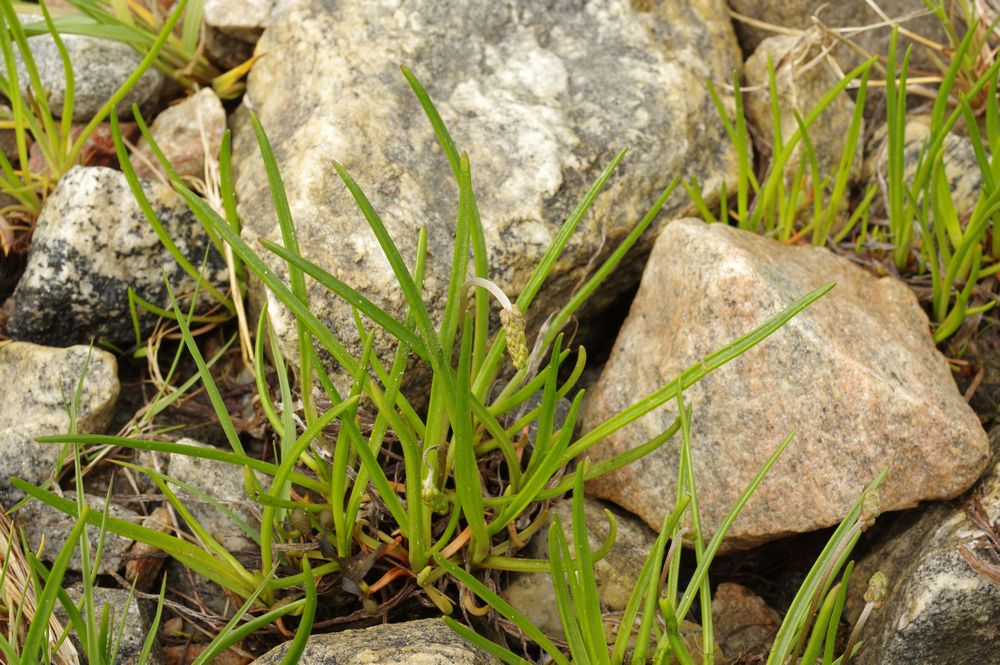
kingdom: Plantae
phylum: Tracheophyta
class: Magnoliopsida
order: Lamiales
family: Plantaginaceae
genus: Plantago
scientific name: Plantago maritima
